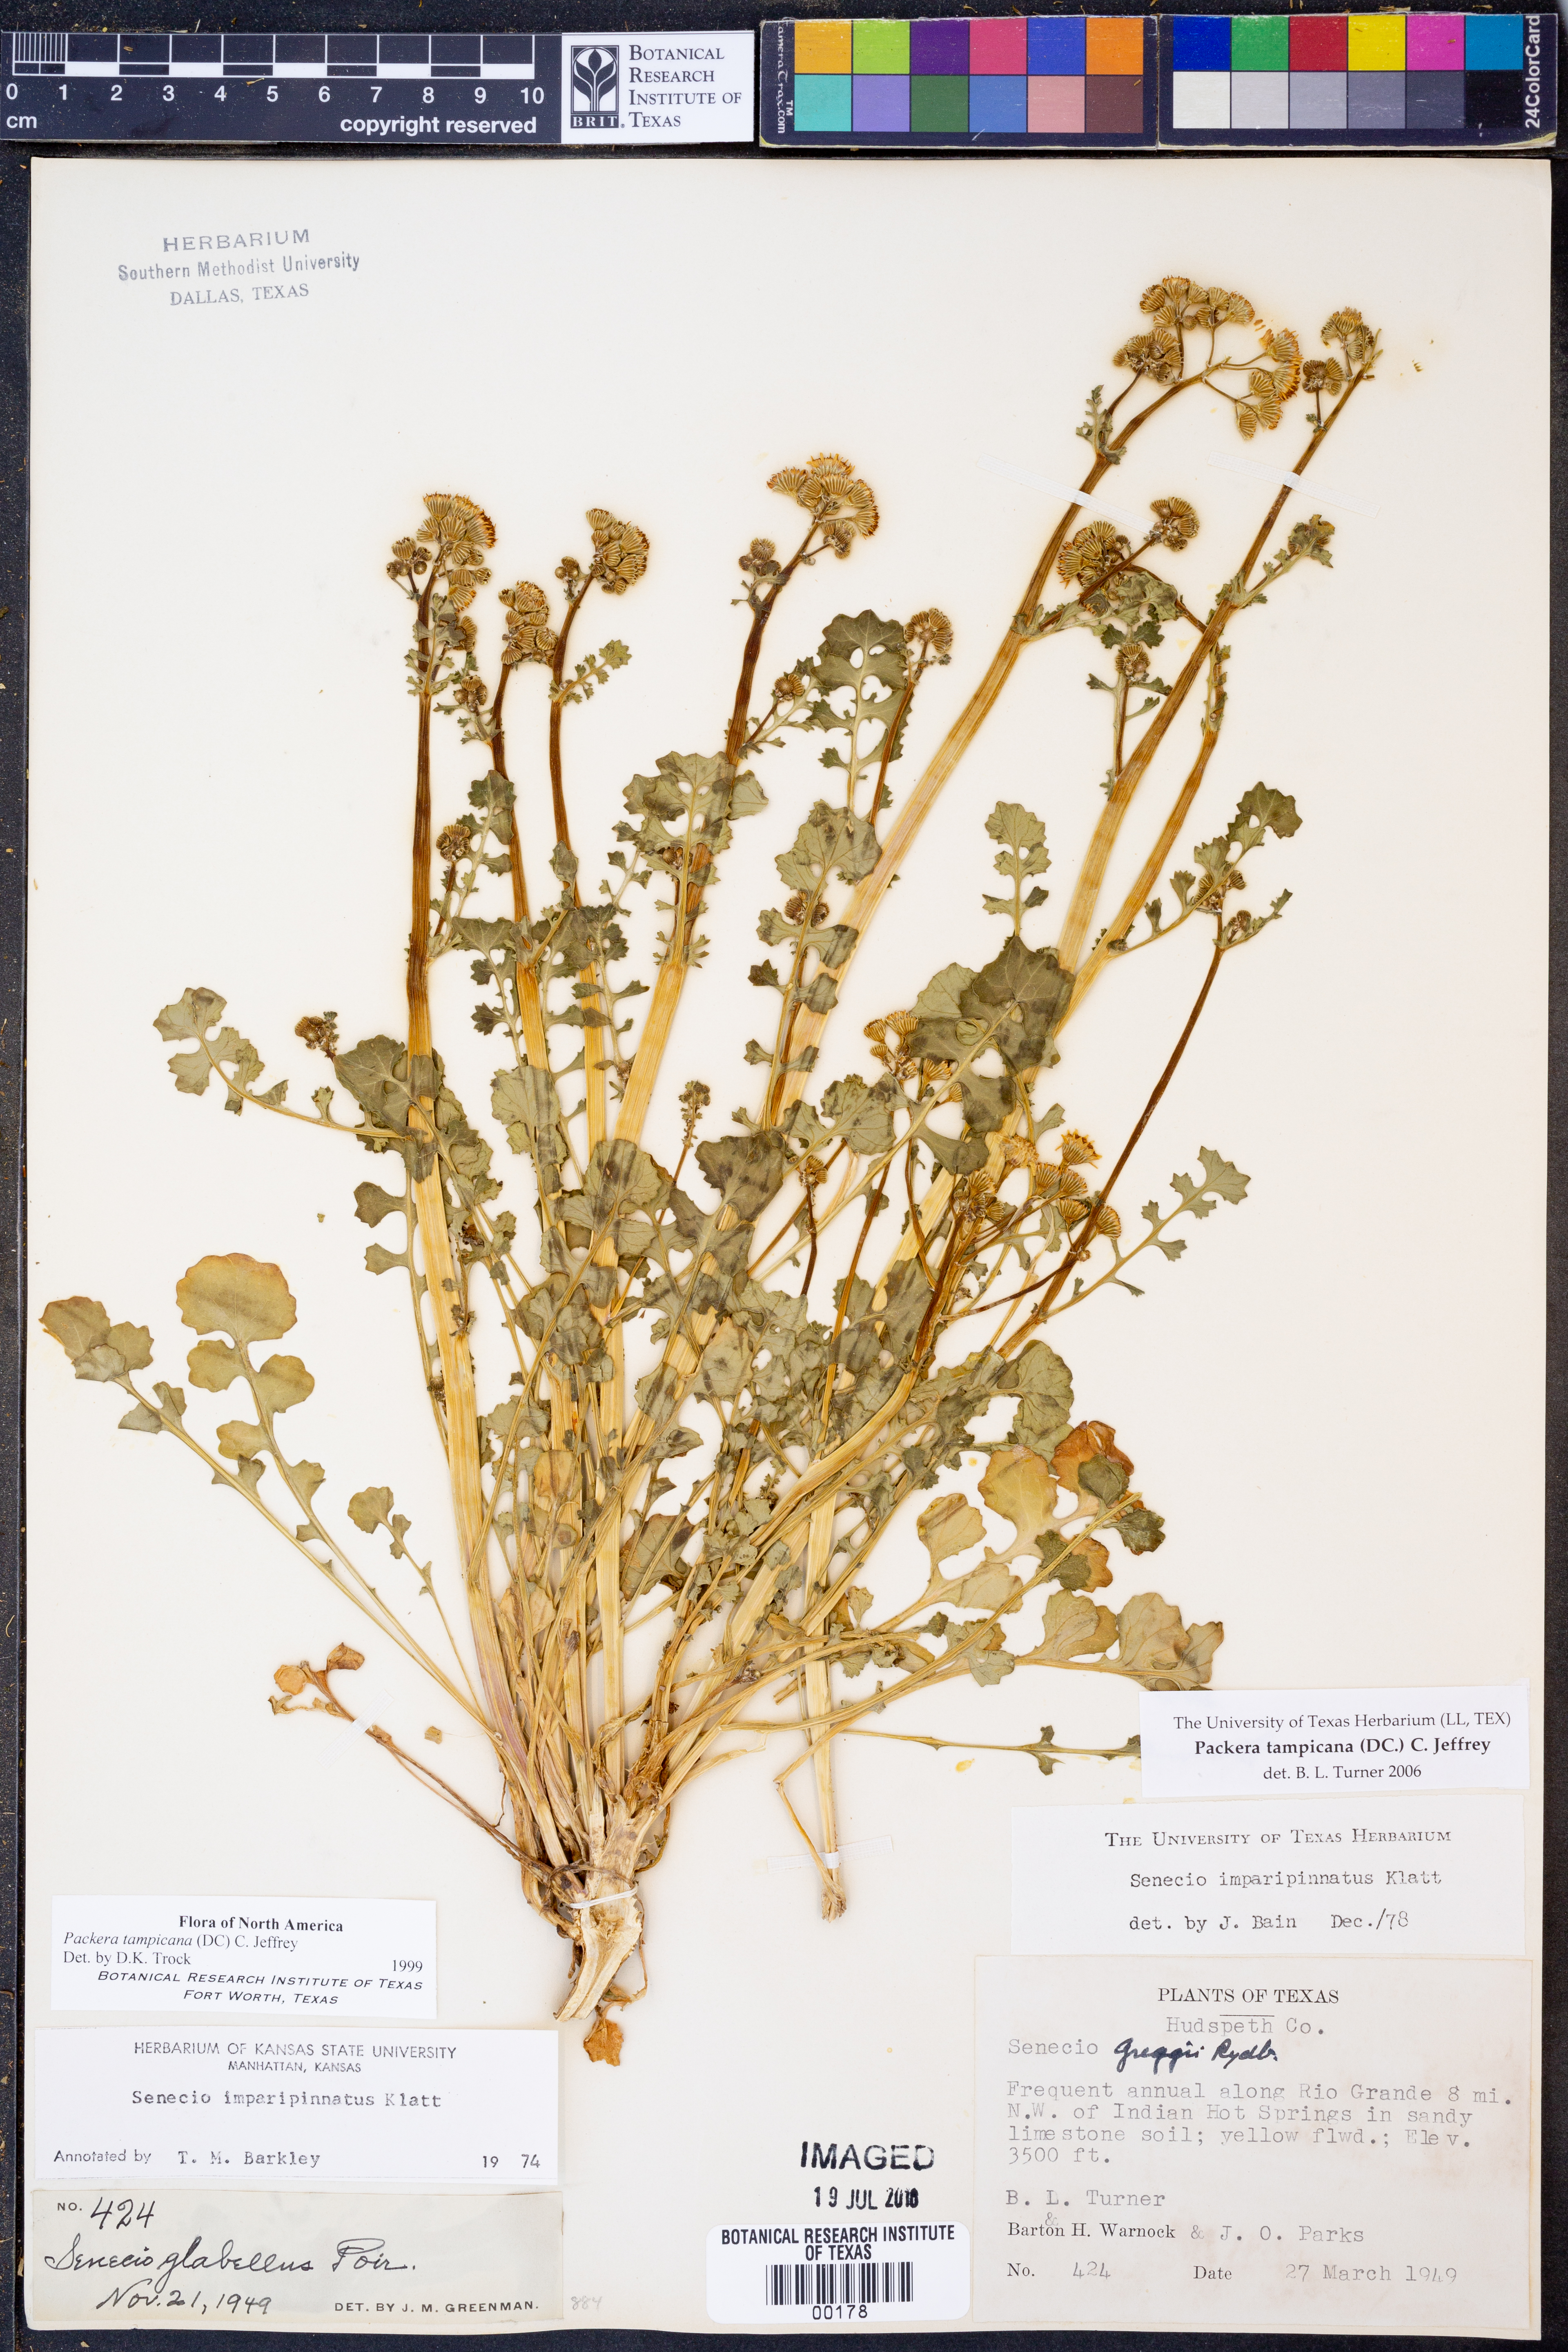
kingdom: Plantae
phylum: Tracheophyta
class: Magnoliopsida
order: Asterales
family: Asteraceae
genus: Packera
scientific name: Packera tampicana
